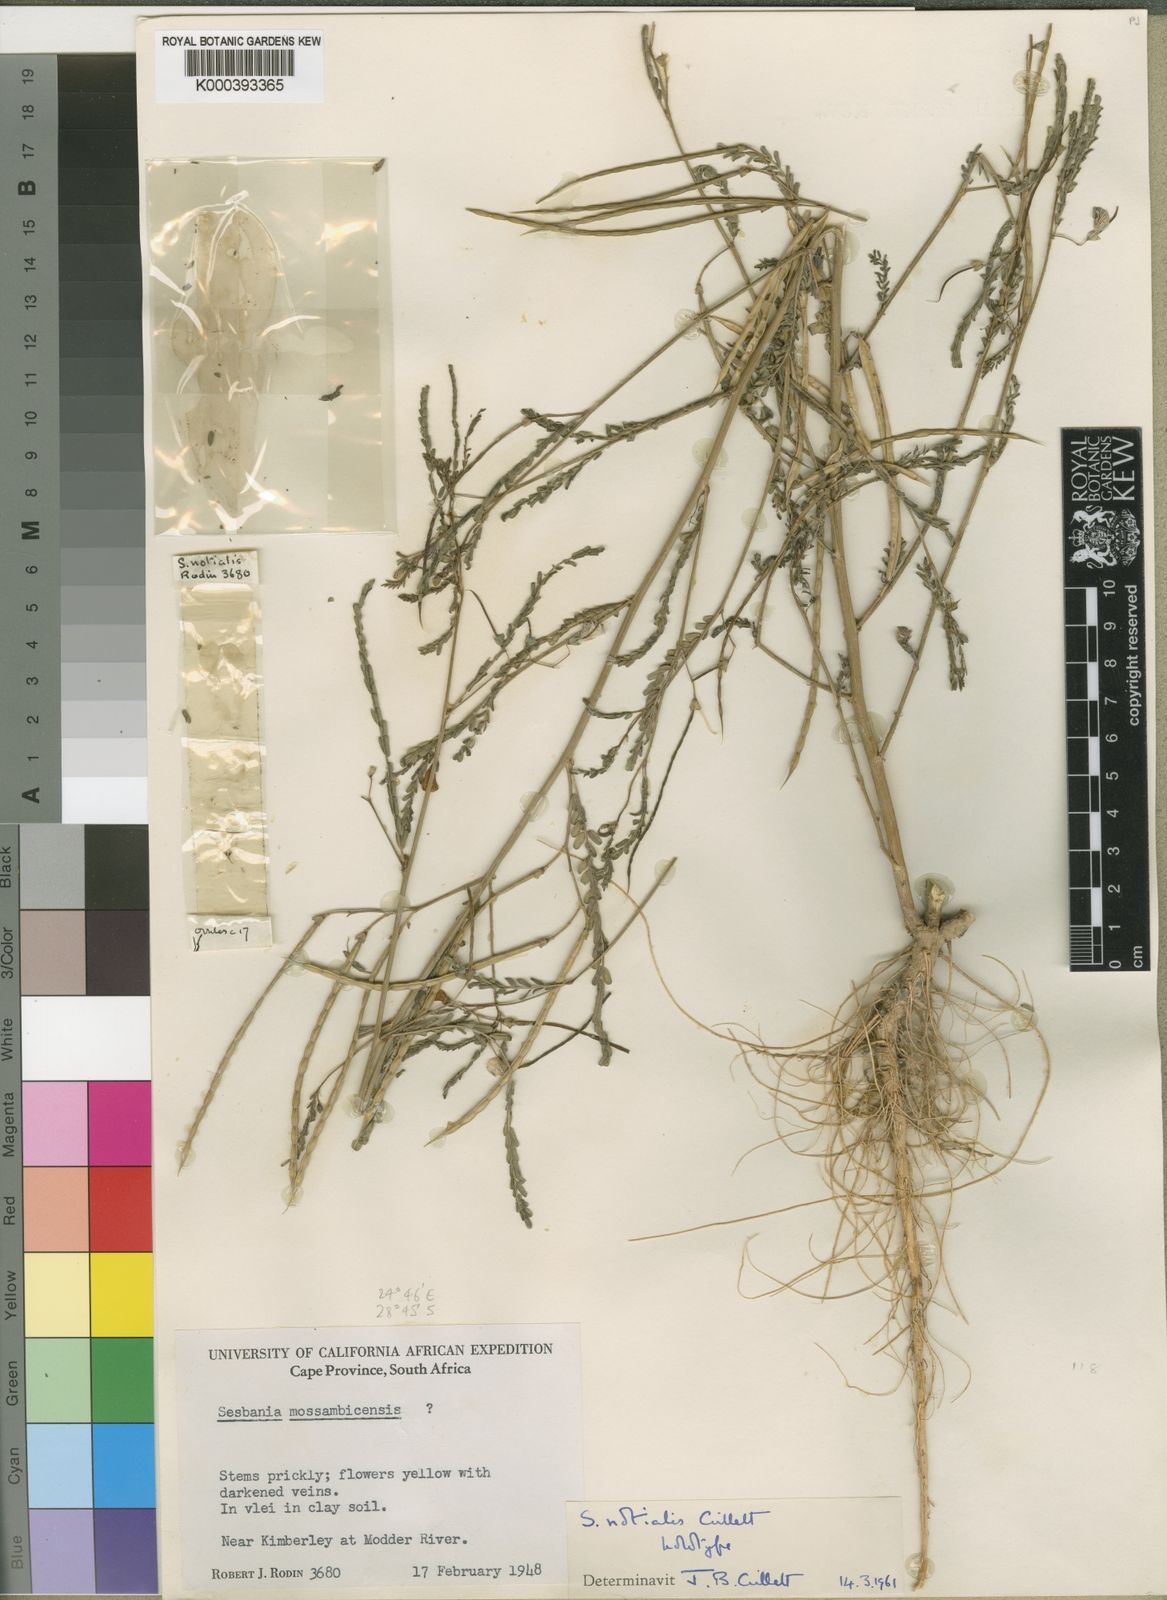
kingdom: Plantae
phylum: Tracheophyta
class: Magnoliopsida
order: Fabales
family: Fabaceae
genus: Sesbania
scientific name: Sesbania notialis
